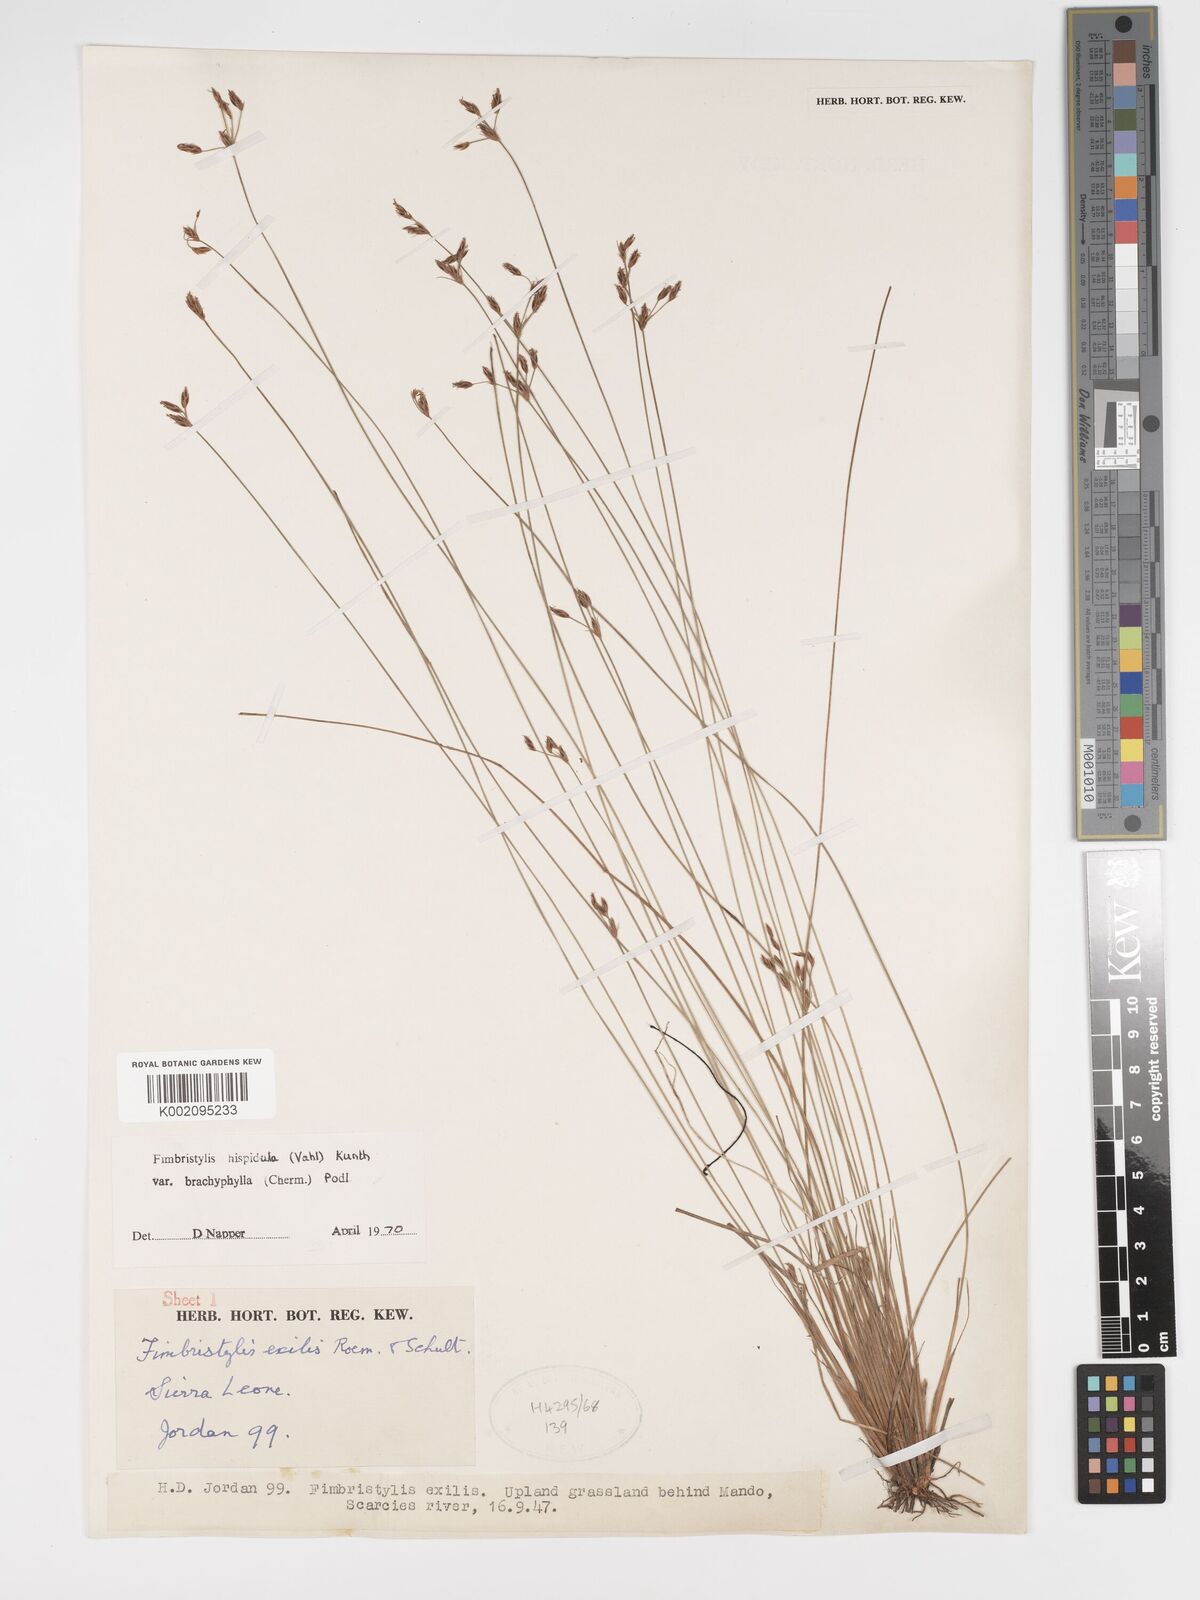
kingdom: Plantae
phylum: Tracheophyta
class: Liliopsida
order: Poales
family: Cyperaceae
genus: Bulbostylis
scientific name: Bulbostylis hispidula
